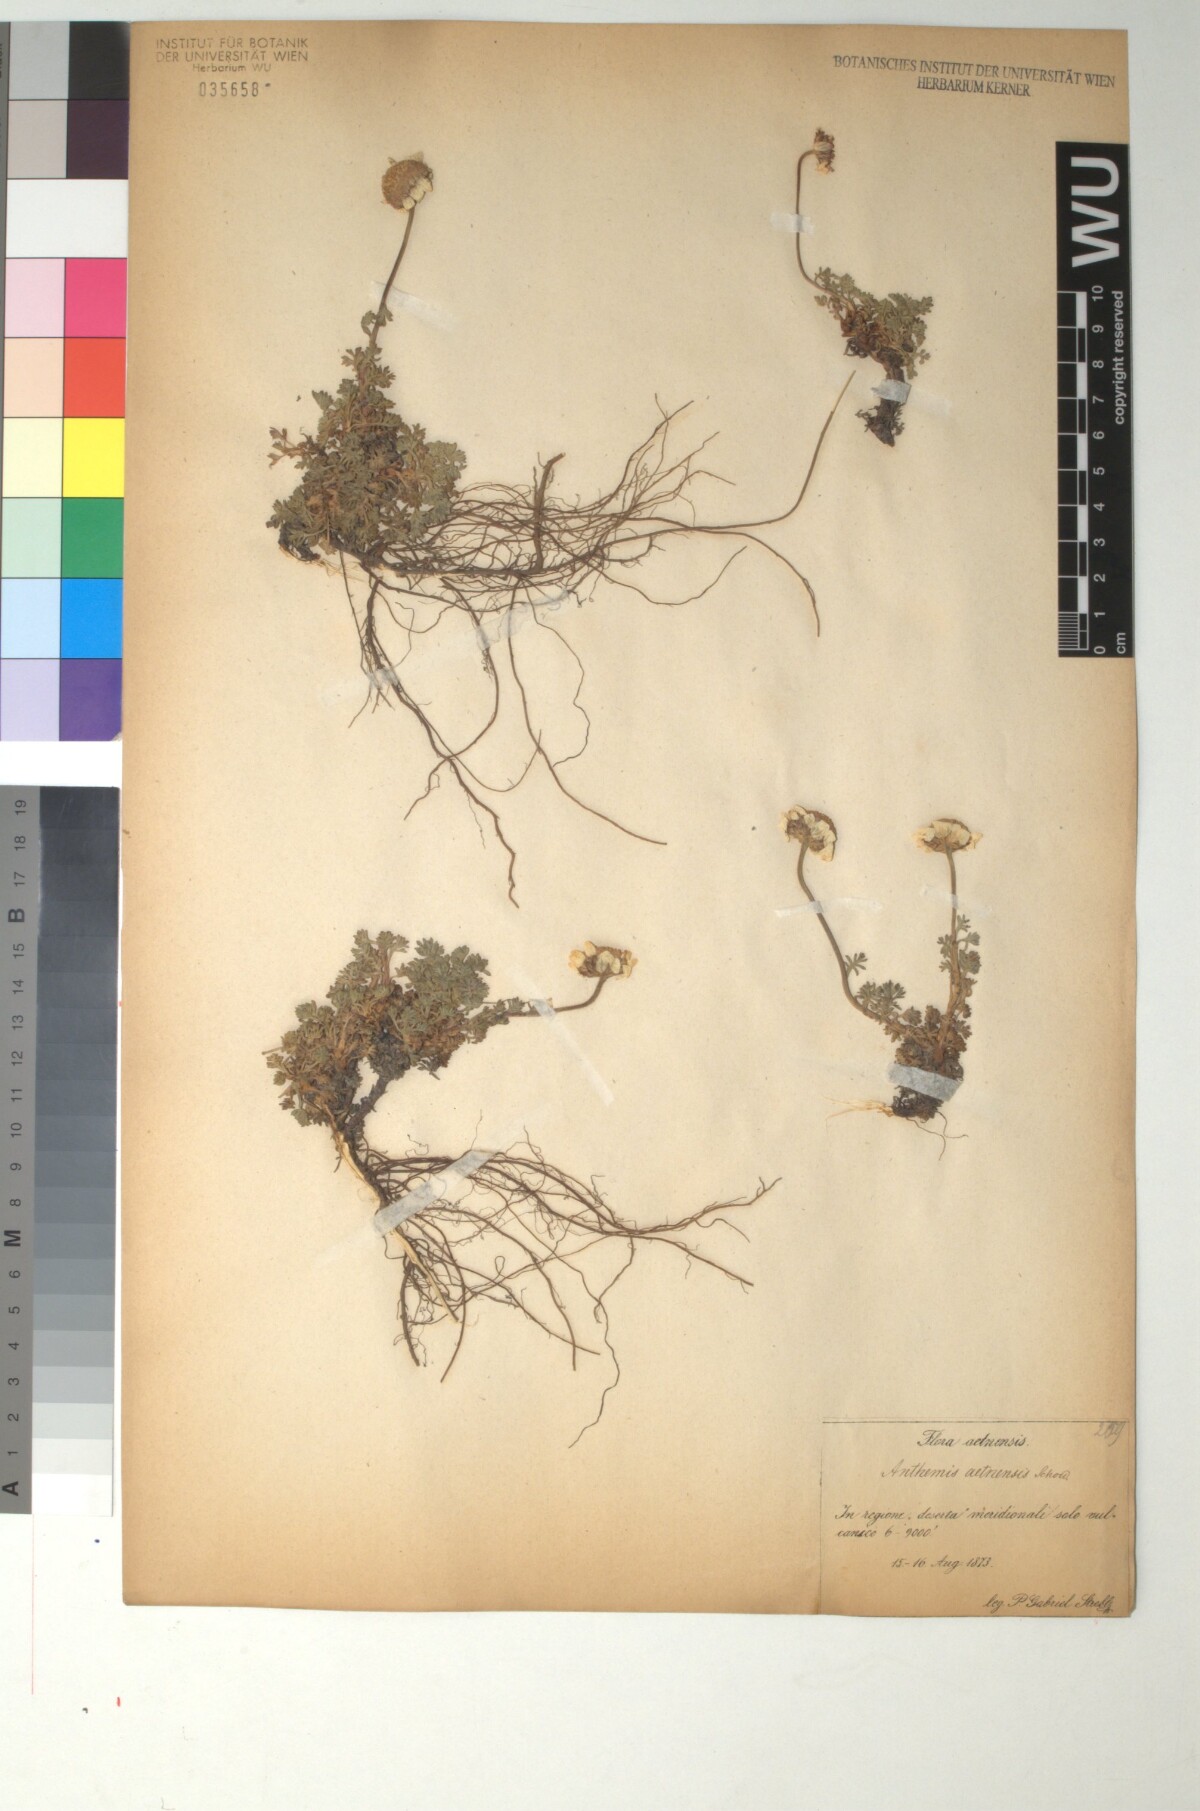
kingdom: Plantae
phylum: Tracheophyta
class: Magnoliopsida
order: Asterales
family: Asteraceae
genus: Anthemis
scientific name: Anthemis aetnensis
